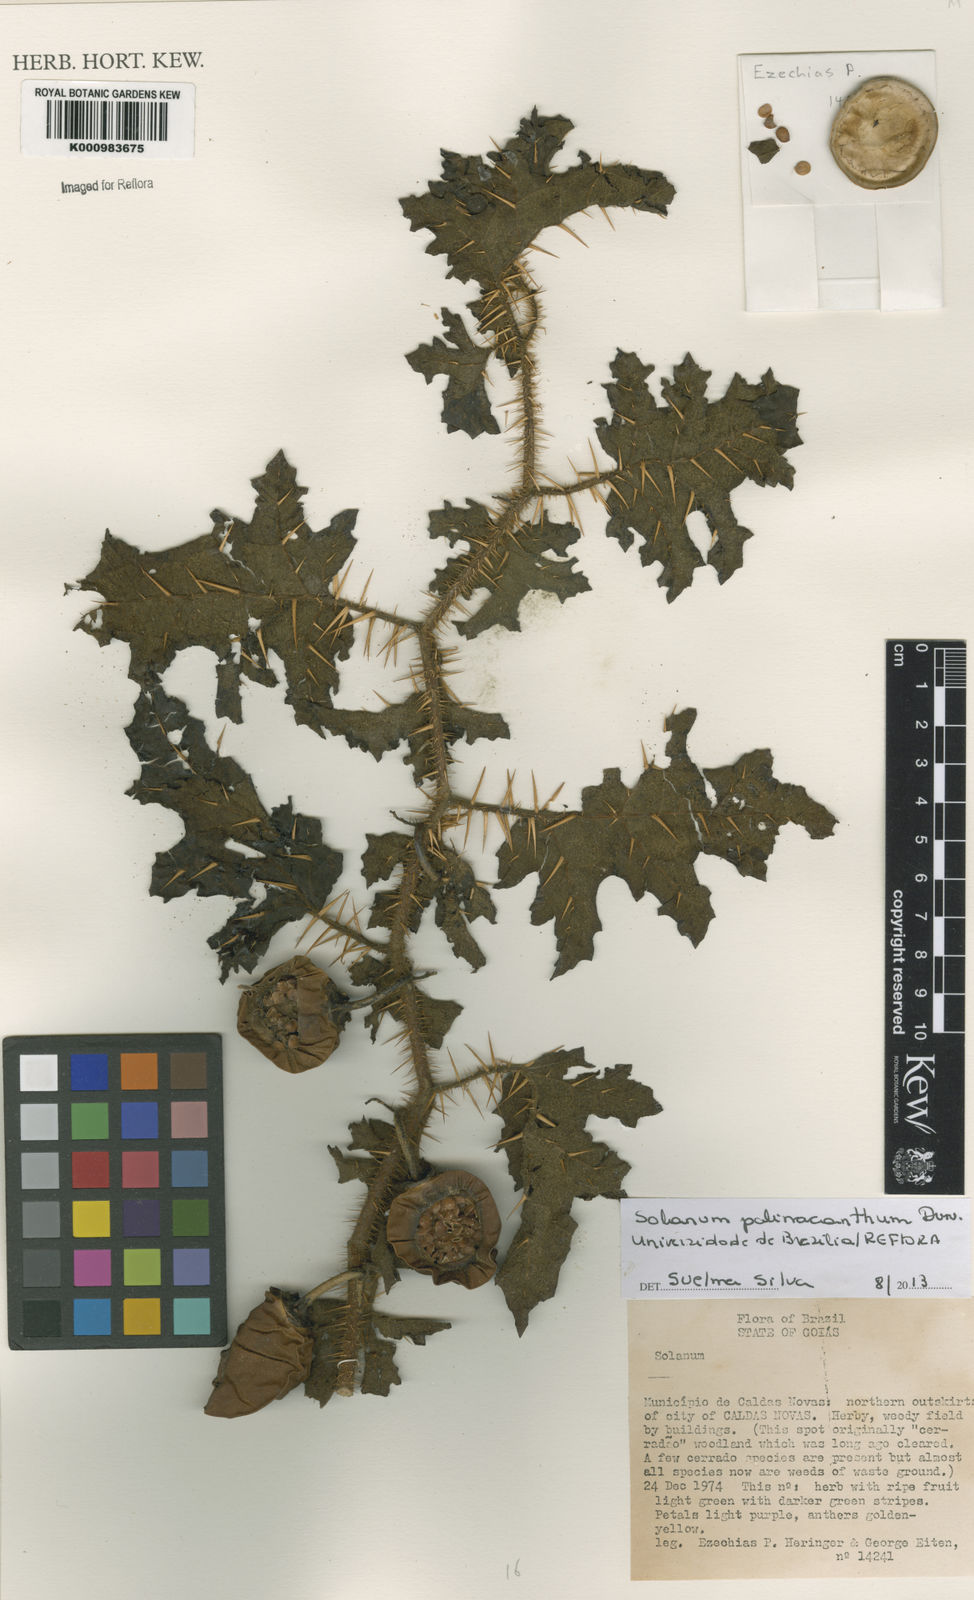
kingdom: Plantae
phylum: Tracheophyta
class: Magnoliopsida
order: Solanales
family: Solanaceae
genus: Solanum
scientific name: Solanum palinacanthum
